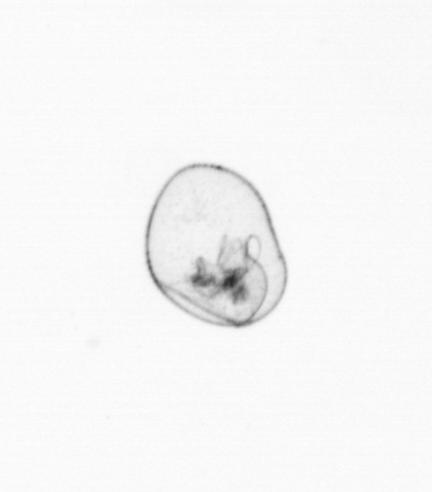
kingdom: Chromista
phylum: Myzozoa
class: Dinophyceae
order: Noctilucales
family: Noctilucaceae
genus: Noctiluca
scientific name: Noctiluca scintillans
